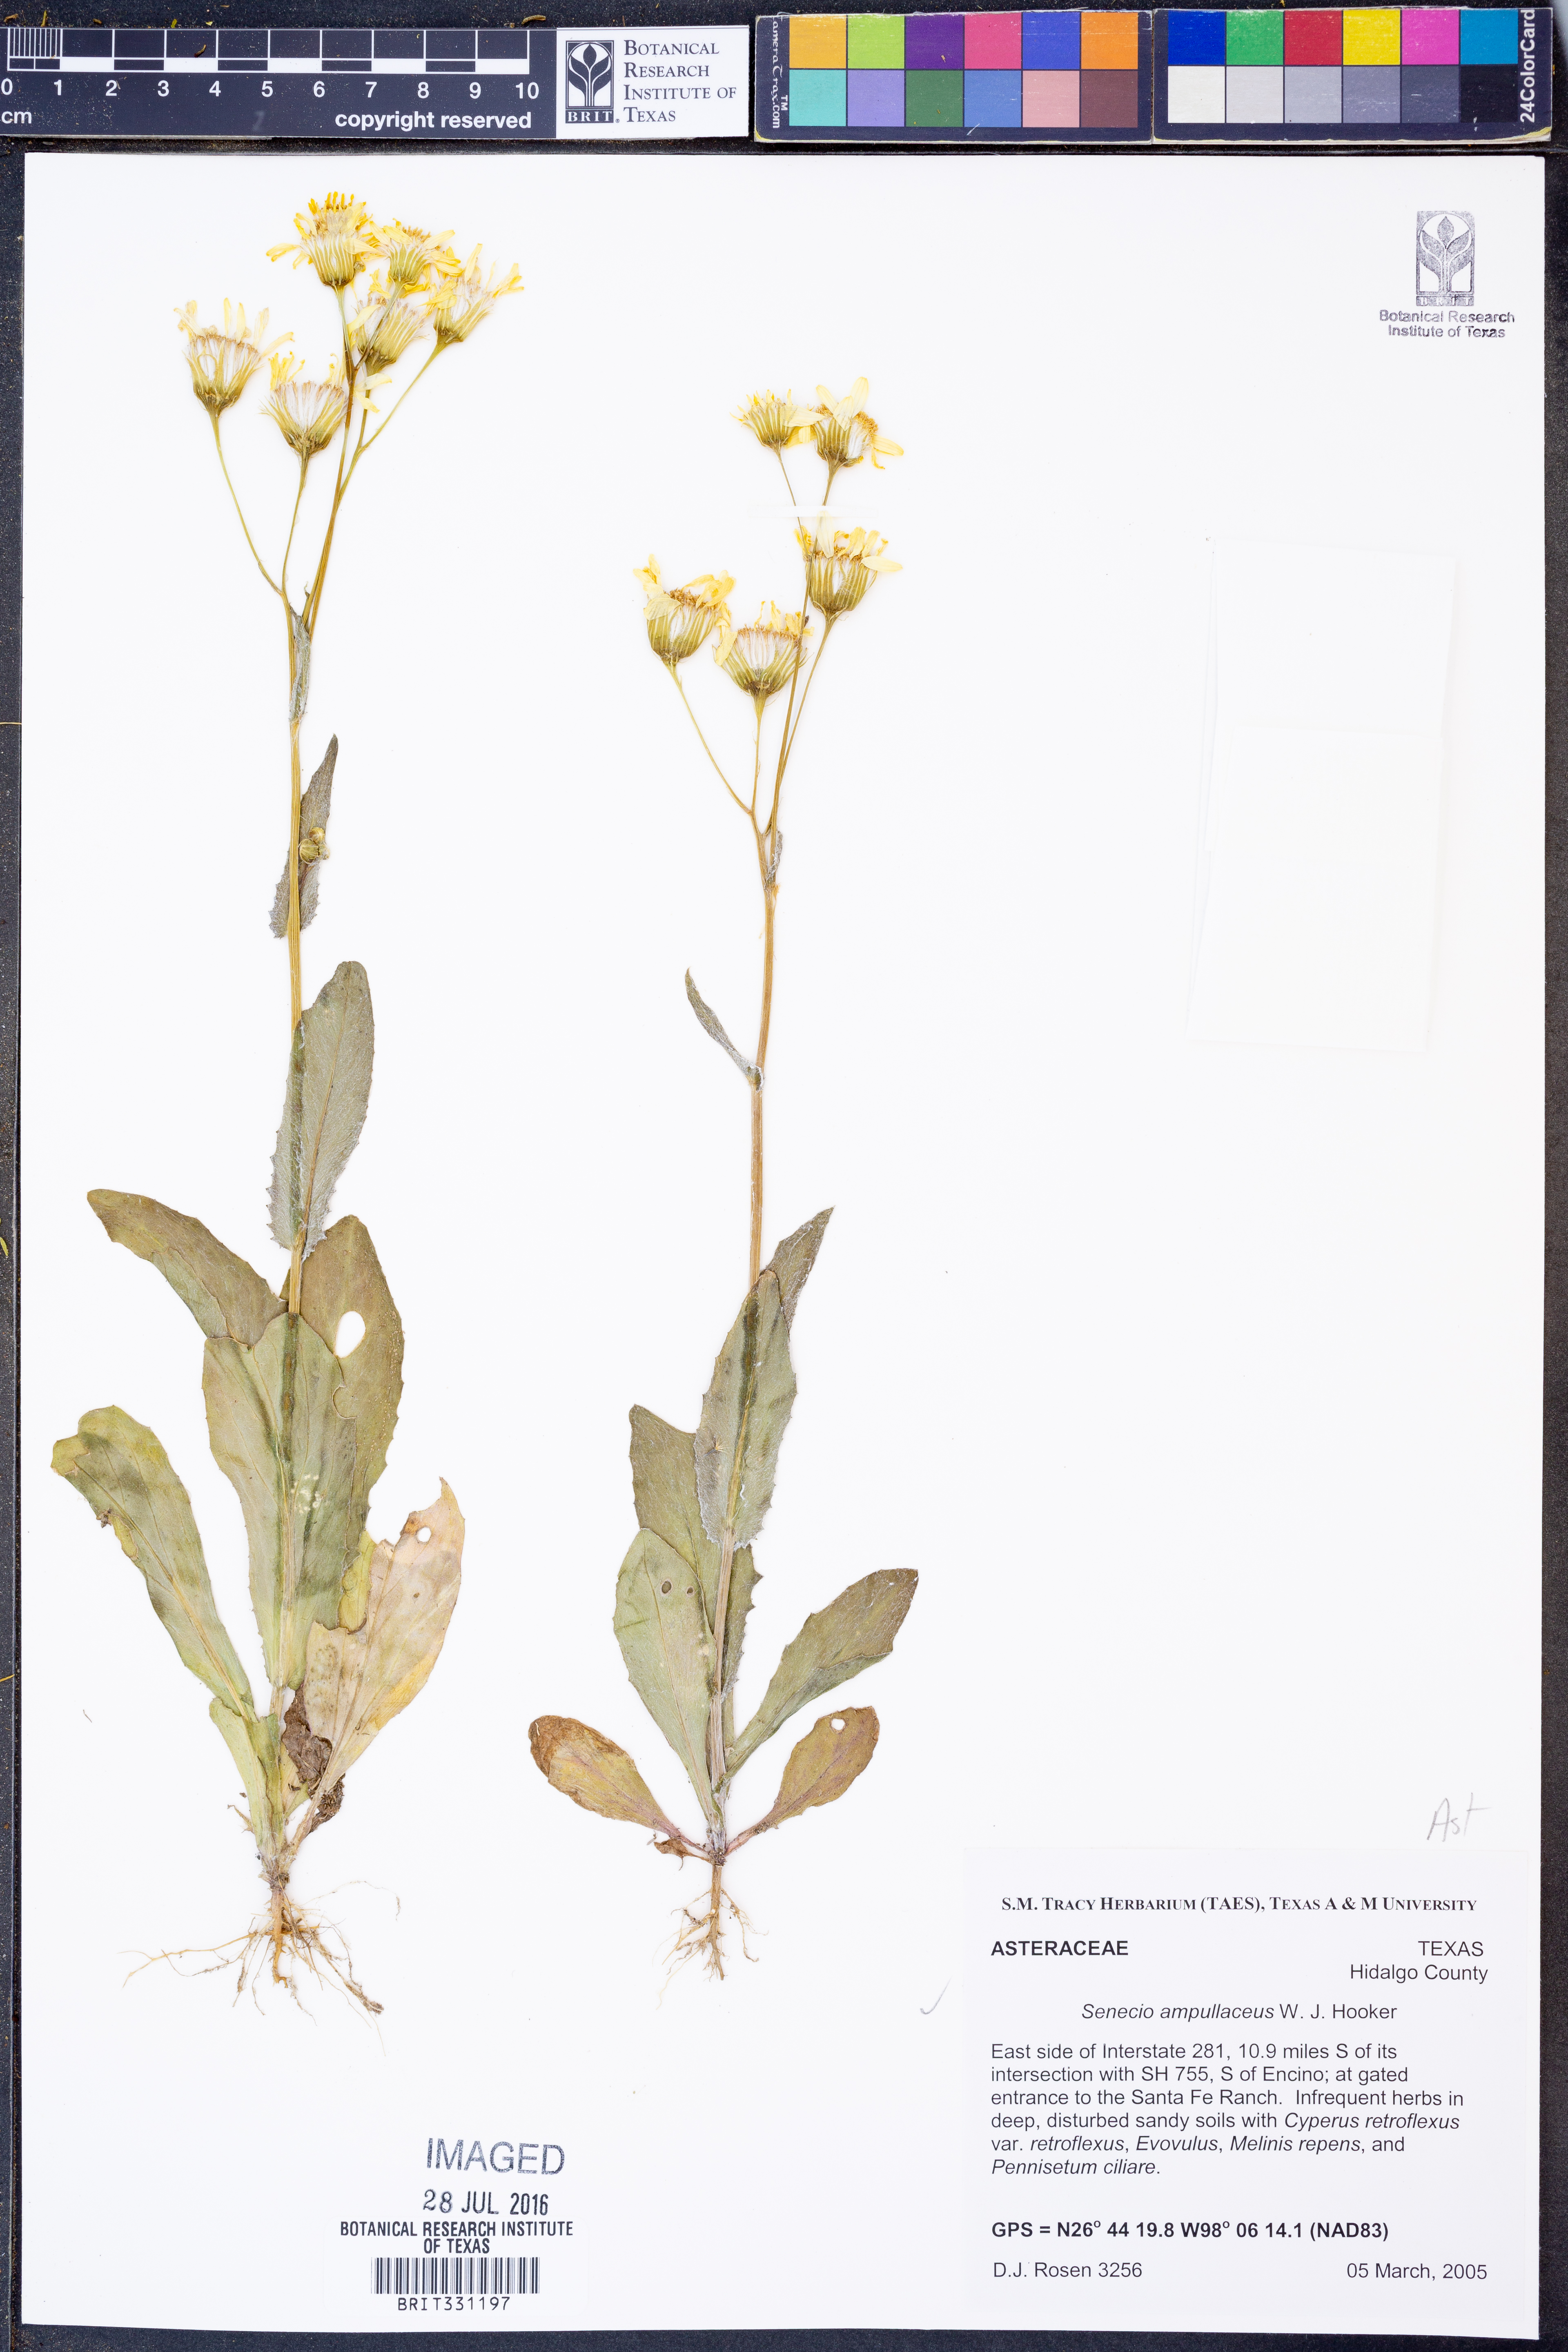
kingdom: Plantae
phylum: Tracheophyta
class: Magnoliopsida
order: Asterales
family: Asteraceae
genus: Senecio
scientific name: Senecio ampullaceus
